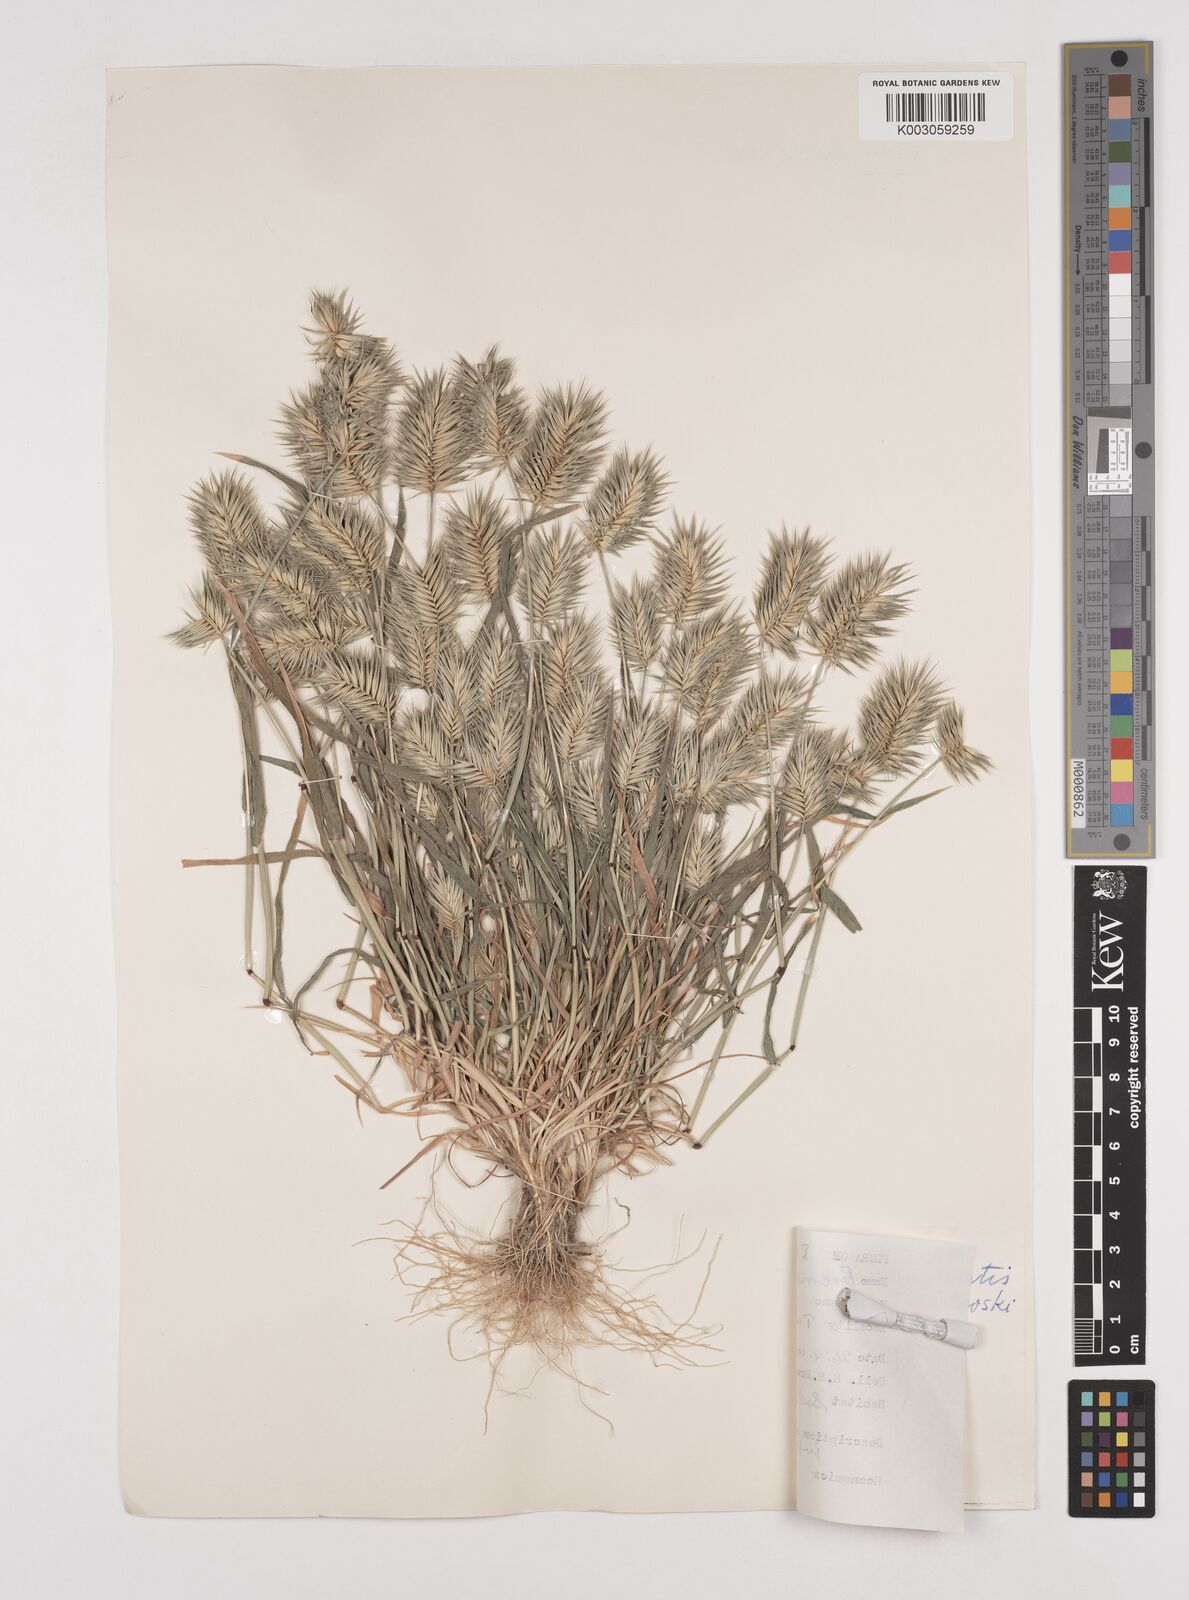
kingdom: Plantae
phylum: Tracheophyta
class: Liliopsida
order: Poales
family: Poaceae
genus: Eremopyrum
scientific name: Eremopyrum bonaepartis
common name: Tapertip false wheatgrass
